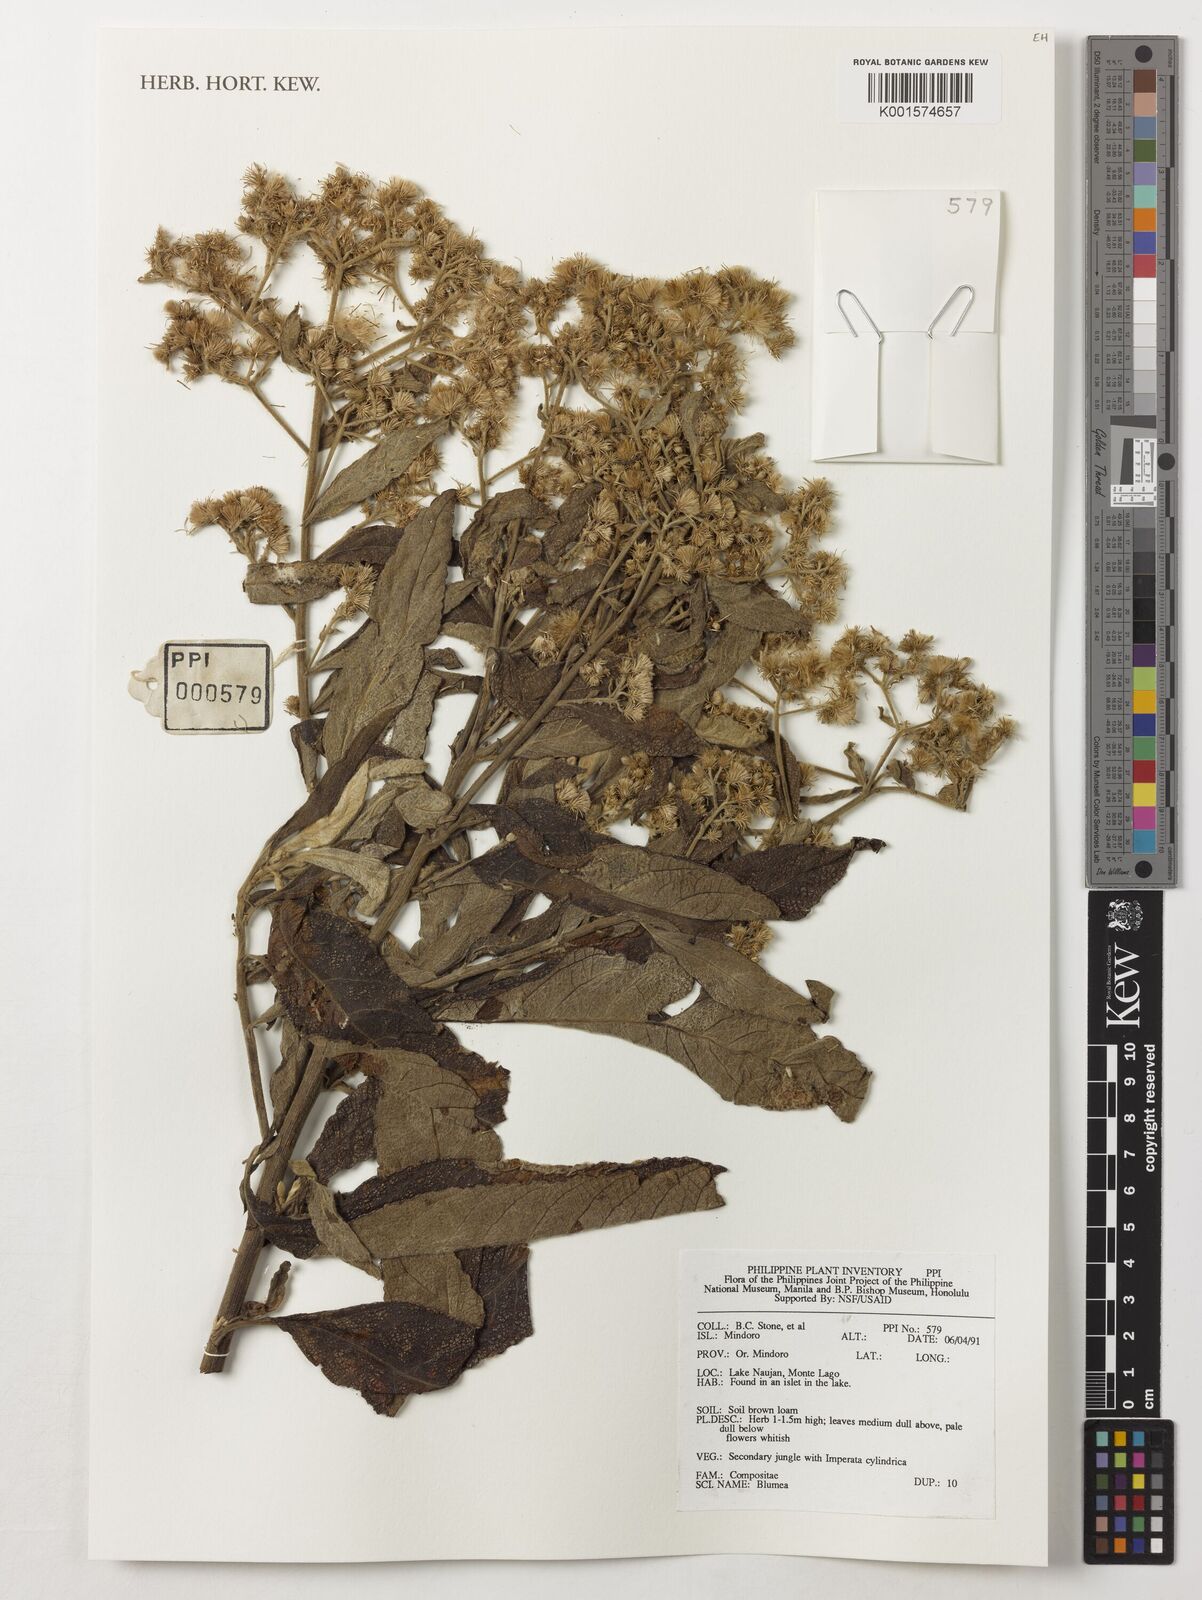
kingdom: Plantae
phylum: Tracheophyta
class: Magnoliopsida
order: Asterales
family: Asteraceae
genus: Blumea
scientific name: Blumea
